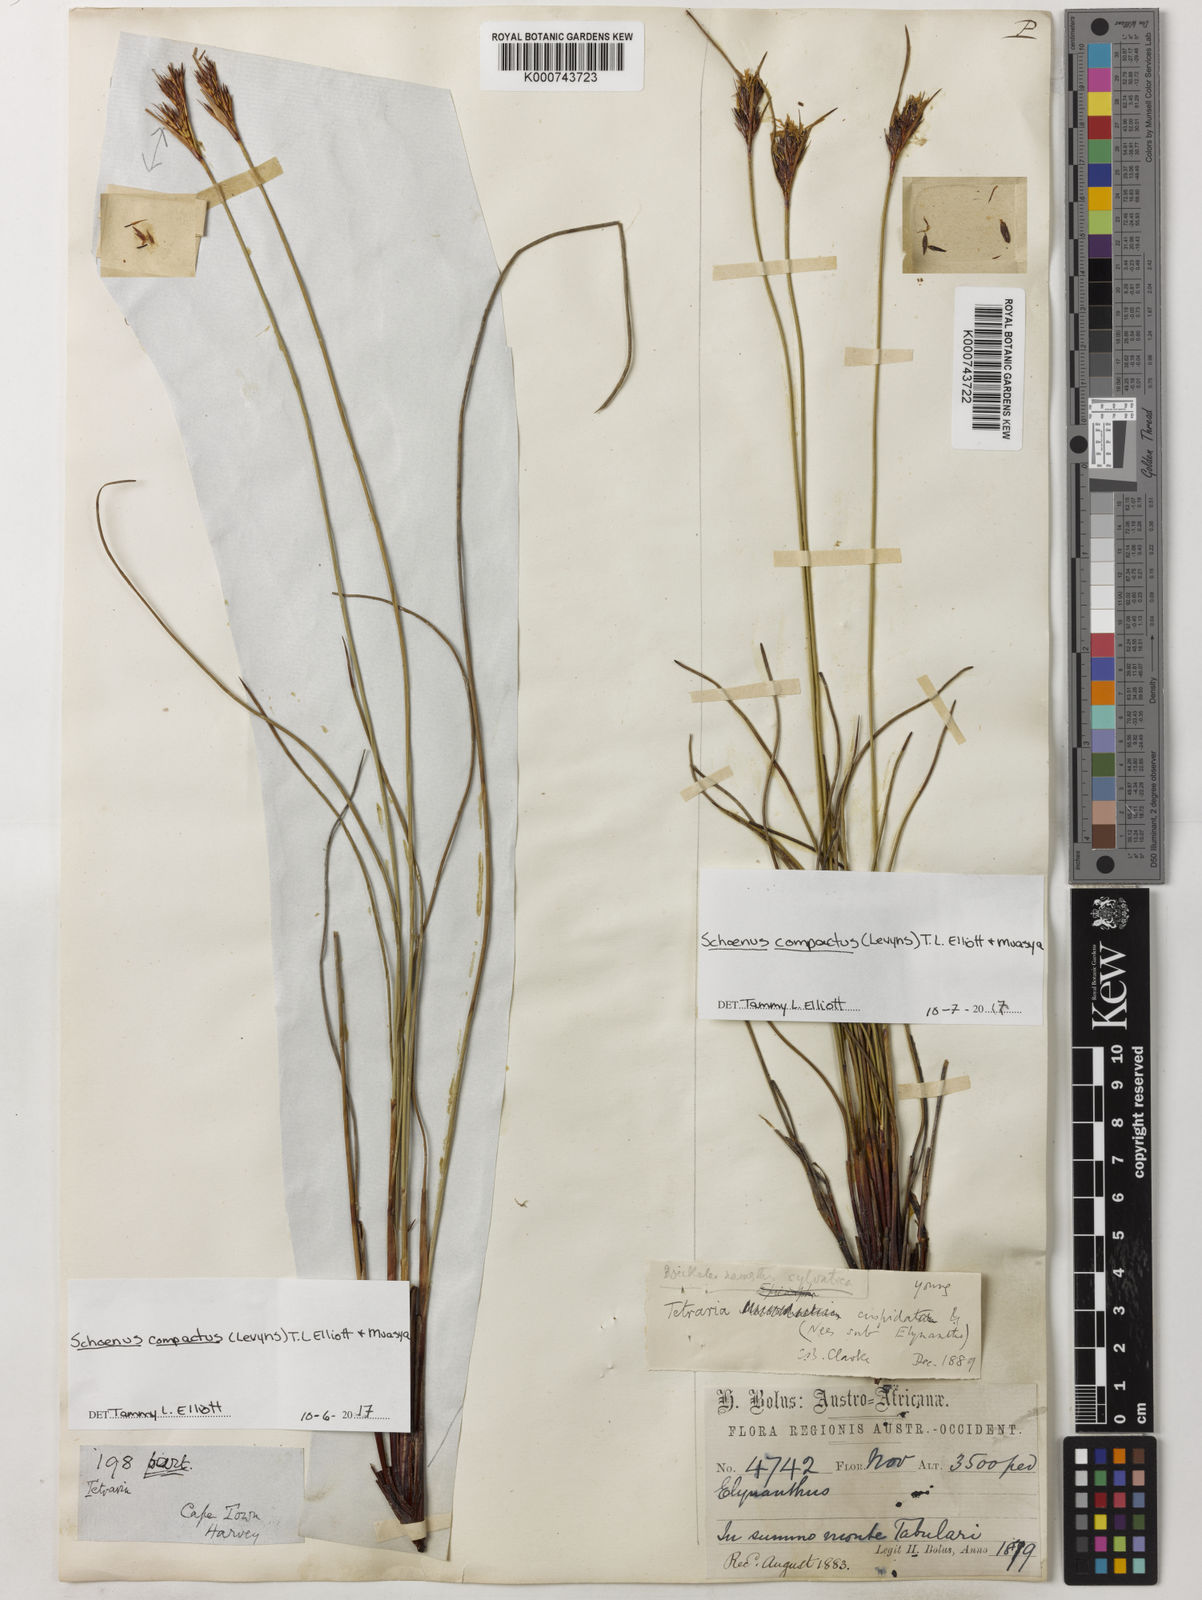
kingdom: Plantae
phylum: Tracheophyta
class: Liliopsida
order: Poales
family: Cyperaceae
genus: Schoenus
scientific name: Schoenus compactus
